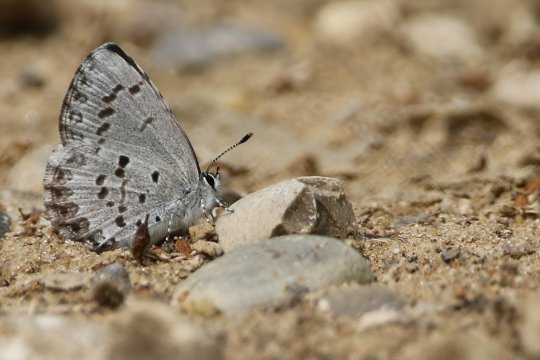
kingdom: Animalia
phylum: Arthropoda
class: Insecta
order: Lepidoptera
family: Lycaenidae
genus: Celastrina
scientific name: Celastrina lucia
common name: Northern Spring Azure
